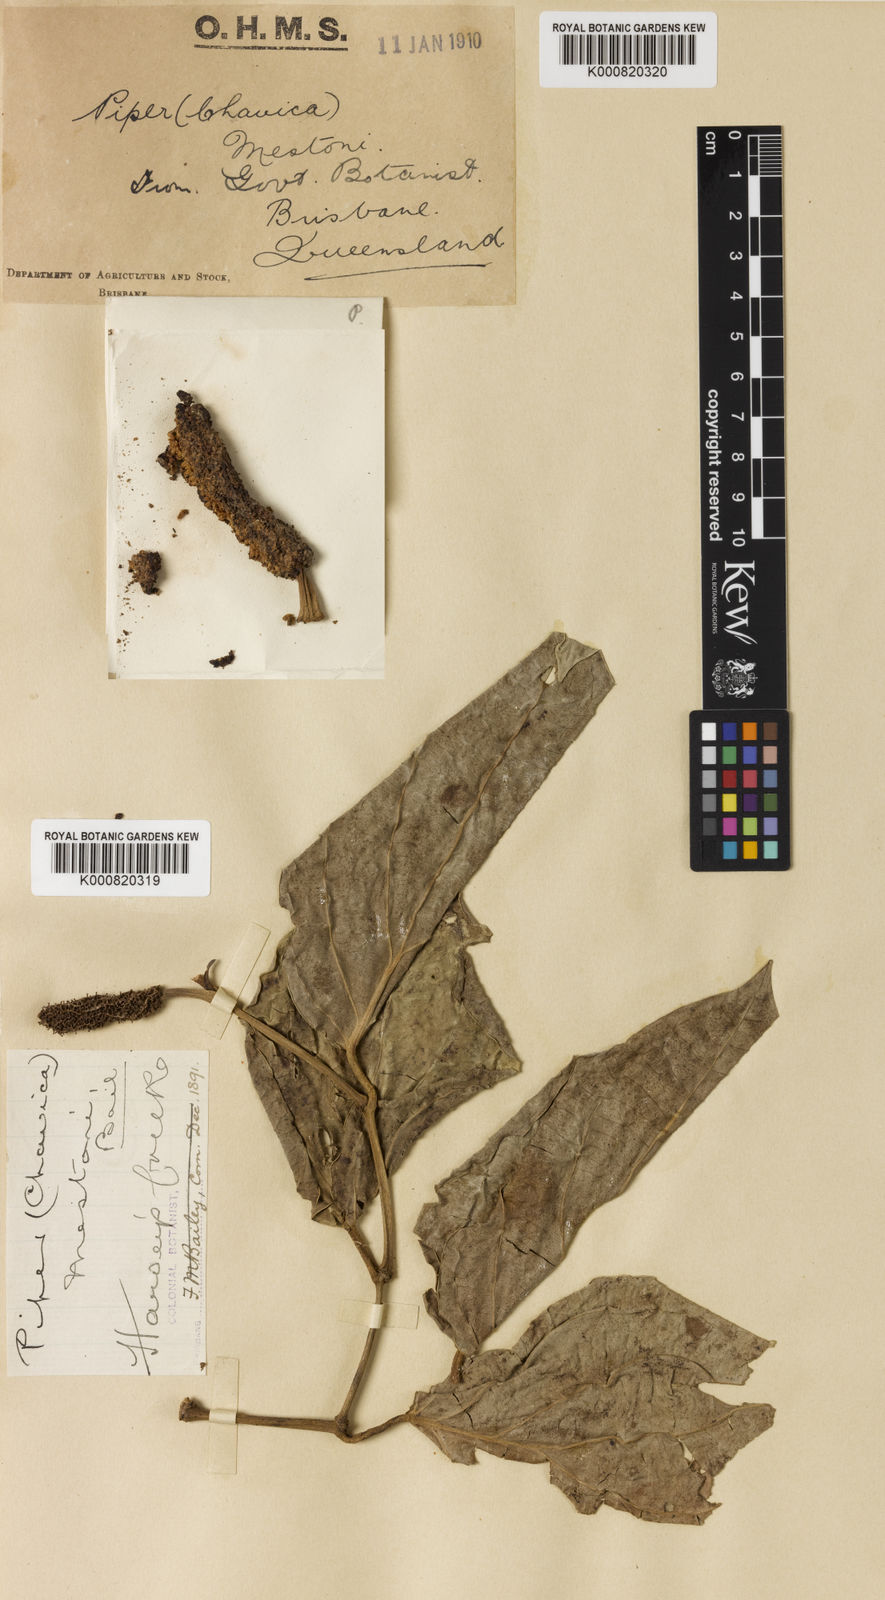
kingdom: Plantae
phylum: Tracheophyta
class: Magnoliopsida
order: Piperales
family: Piperaceae
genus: Piper
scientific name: Piper mestonii
